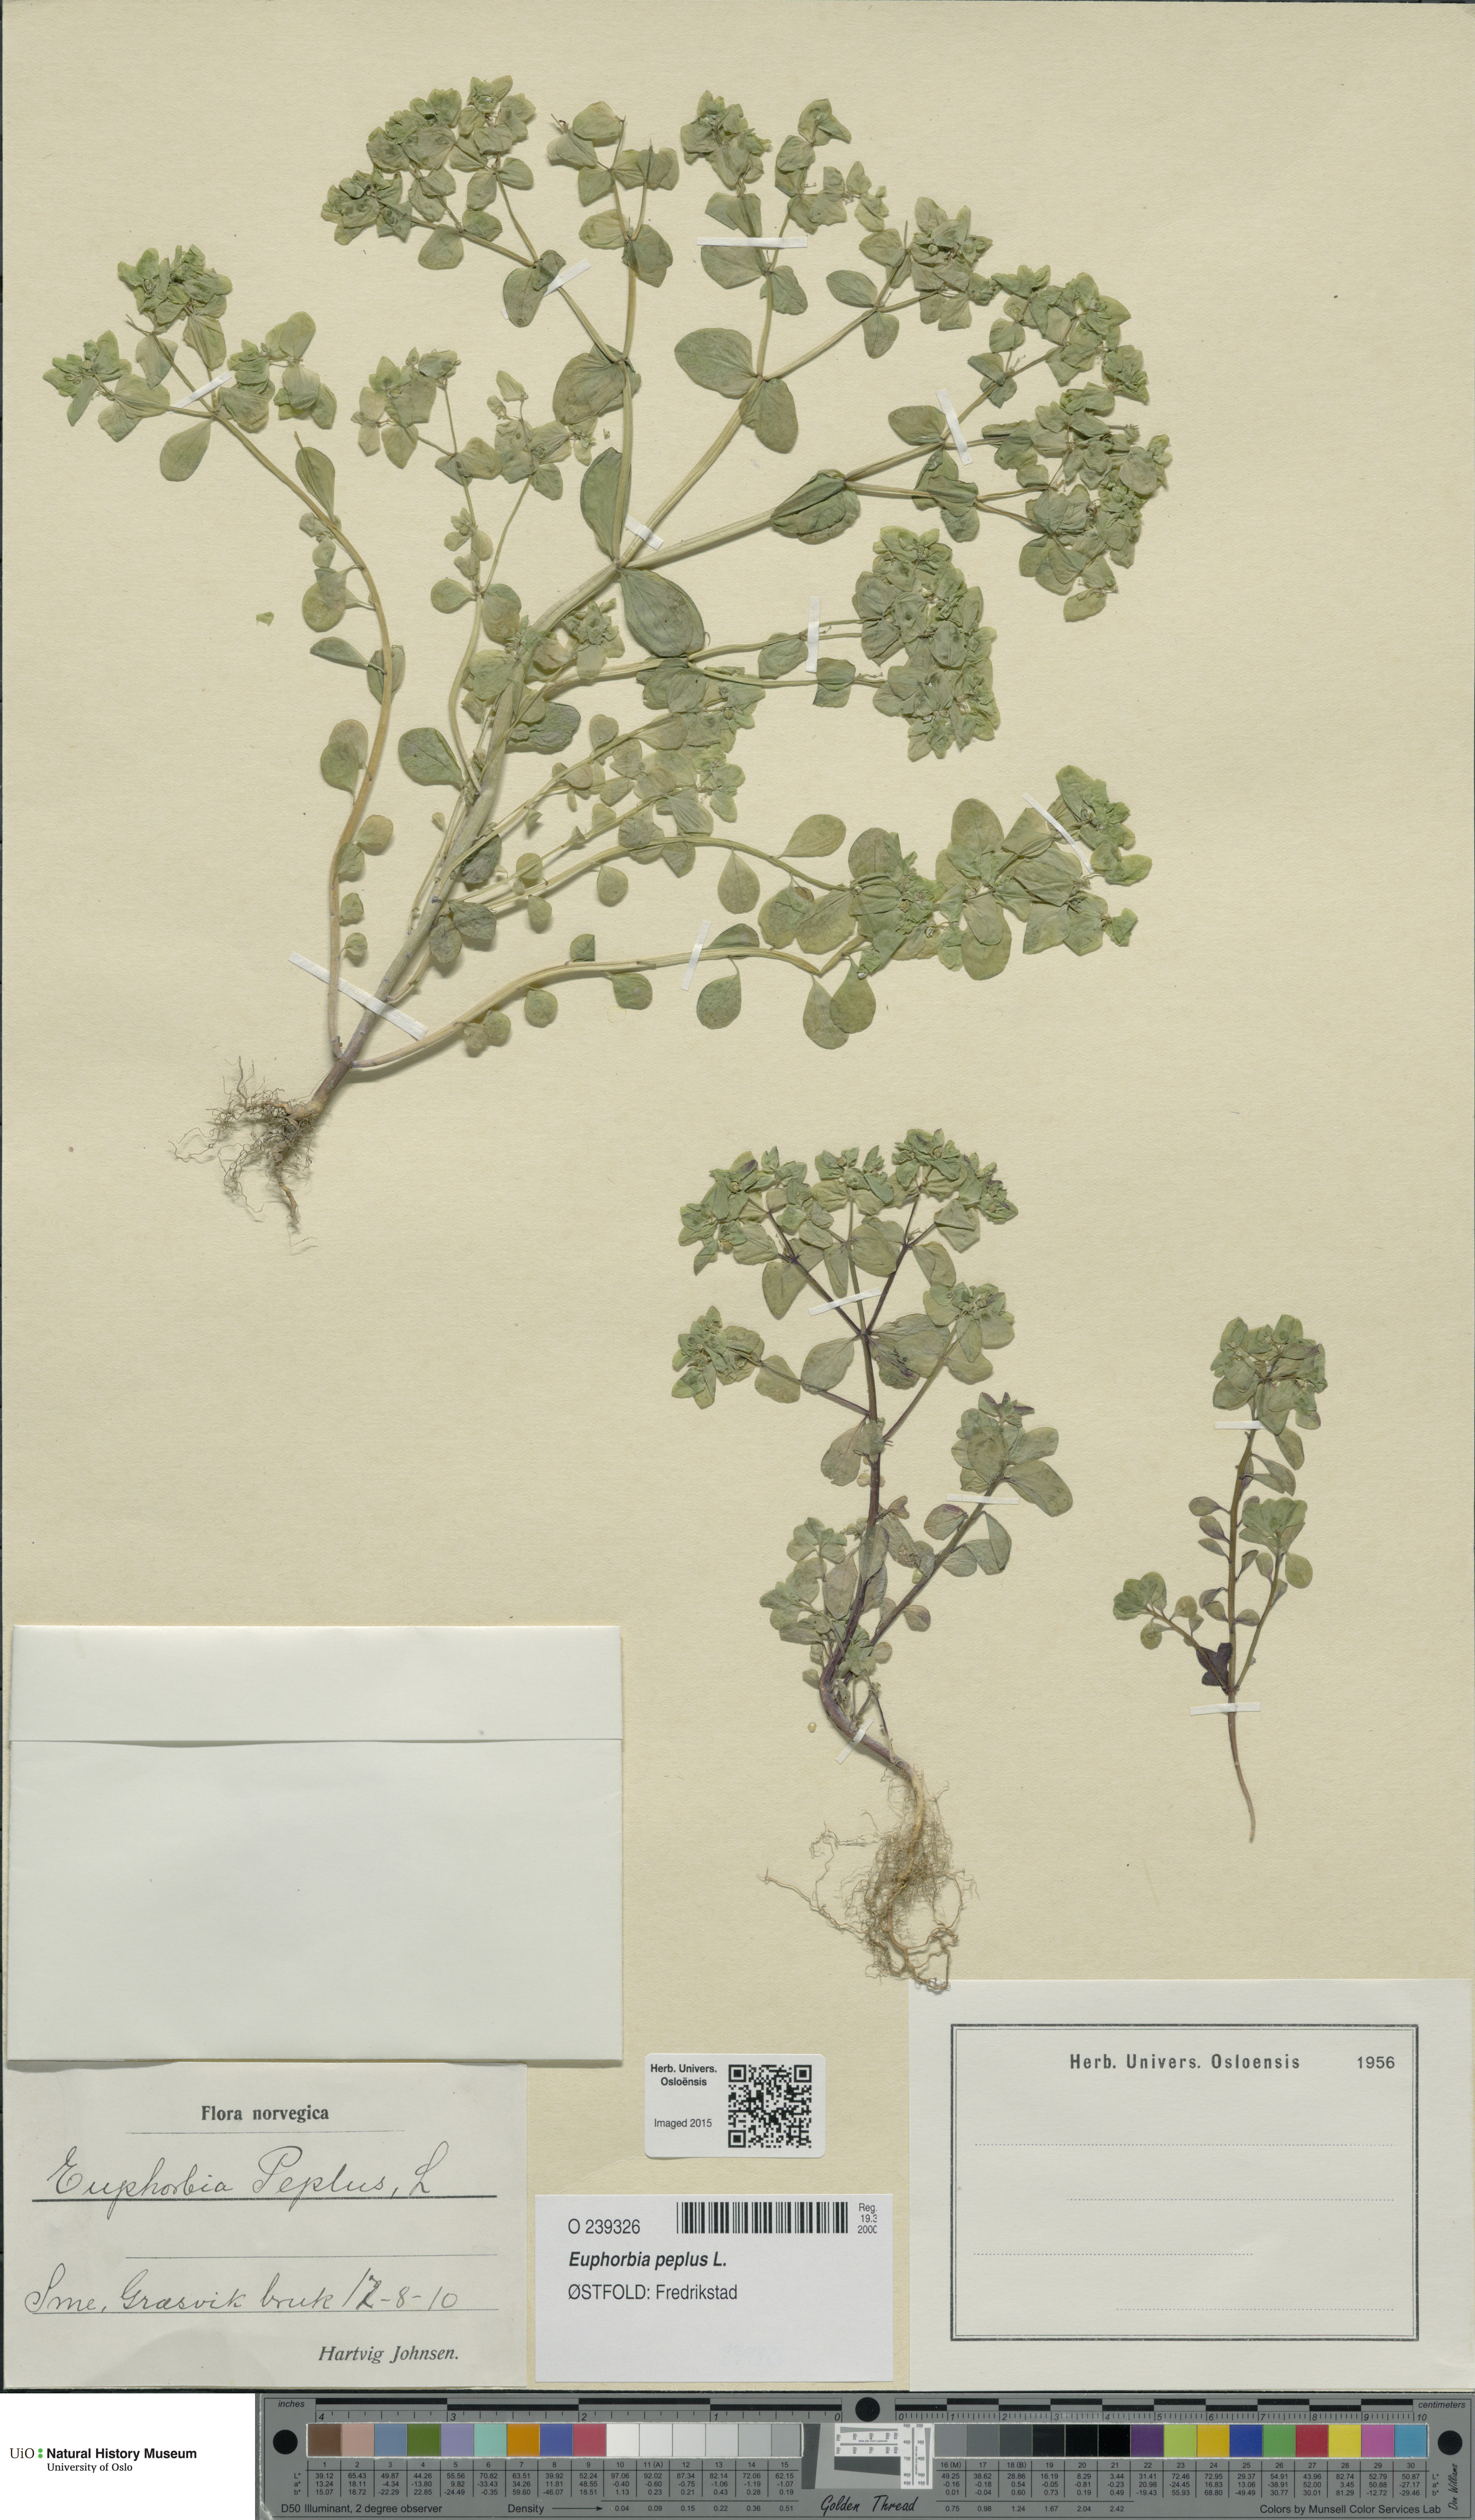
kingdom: Plantae
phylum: Tracheophyta
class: Magnoliopsida
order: Malpighiales
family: Euphorbiaceae
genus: Euphorbia
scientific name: Euphorbia peplus
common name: Petty spurge
